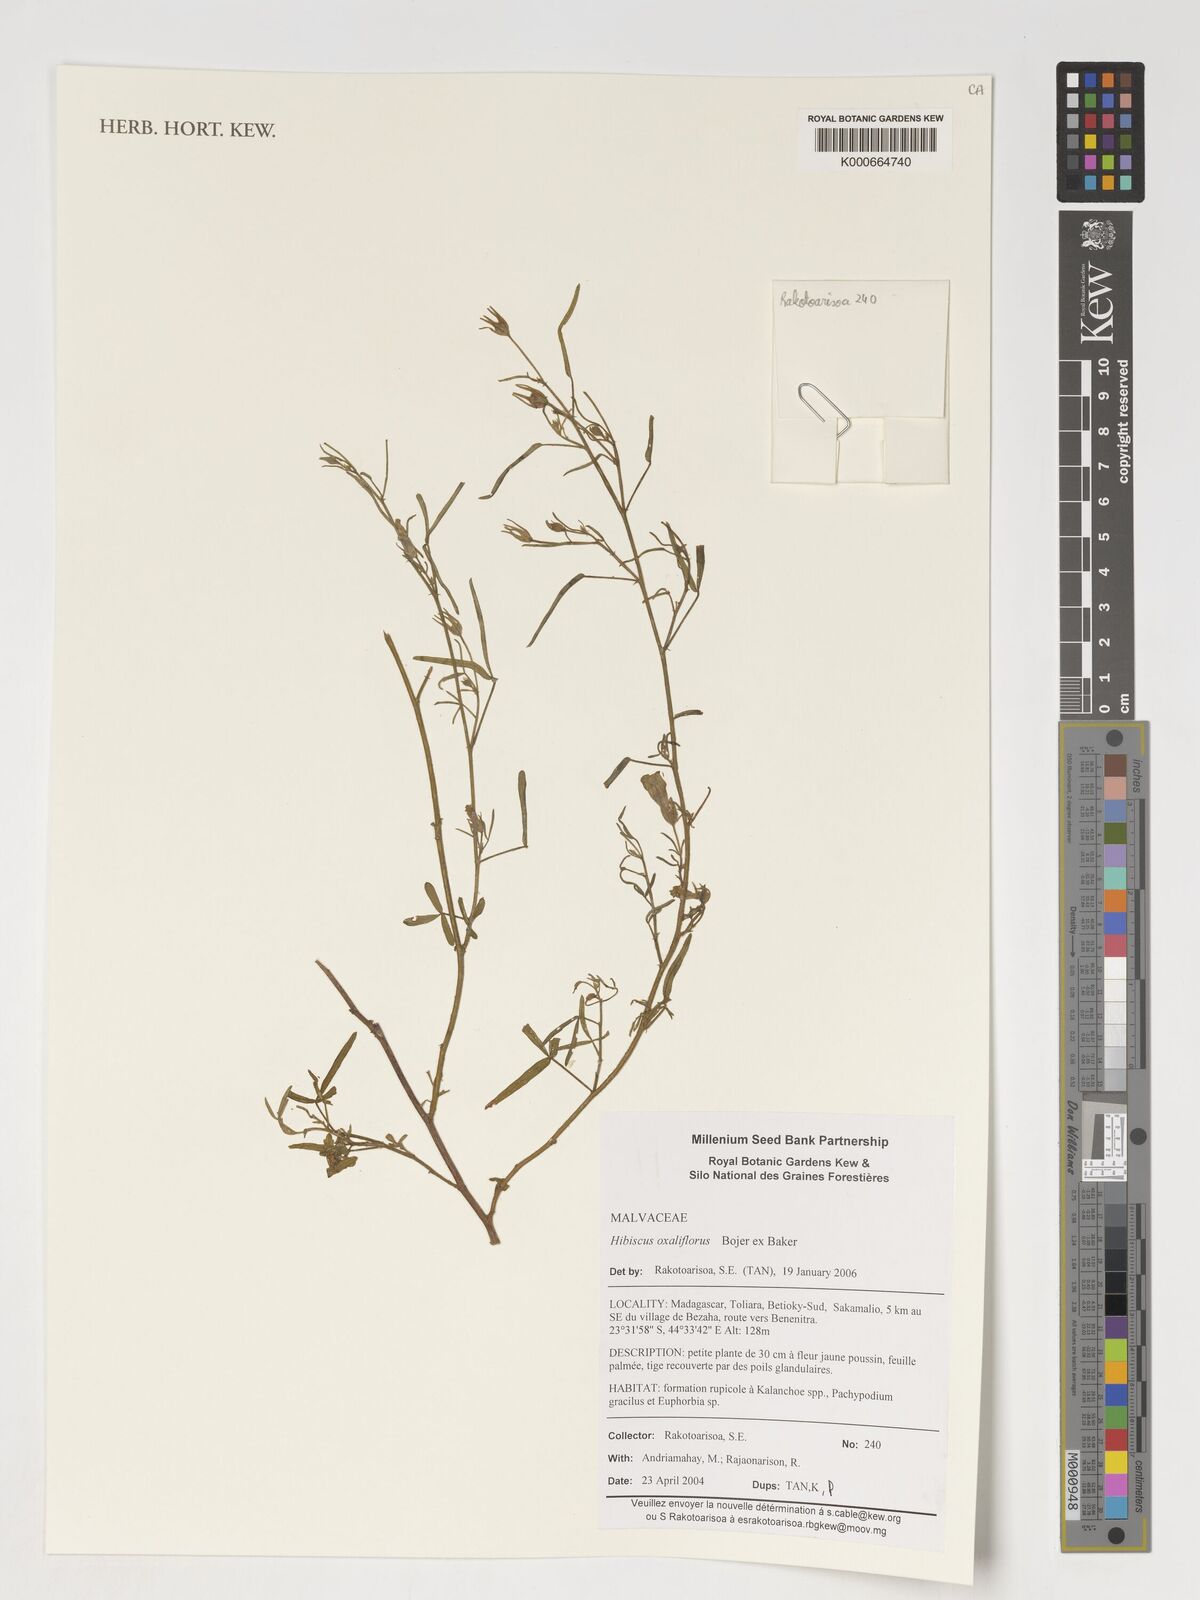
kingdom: Plantae
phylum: Tracheophyta
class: Magnoliopsida
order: Malvales
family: Malvaceae
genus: Hibiscus
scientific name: Hibiscus oxaliflorus
